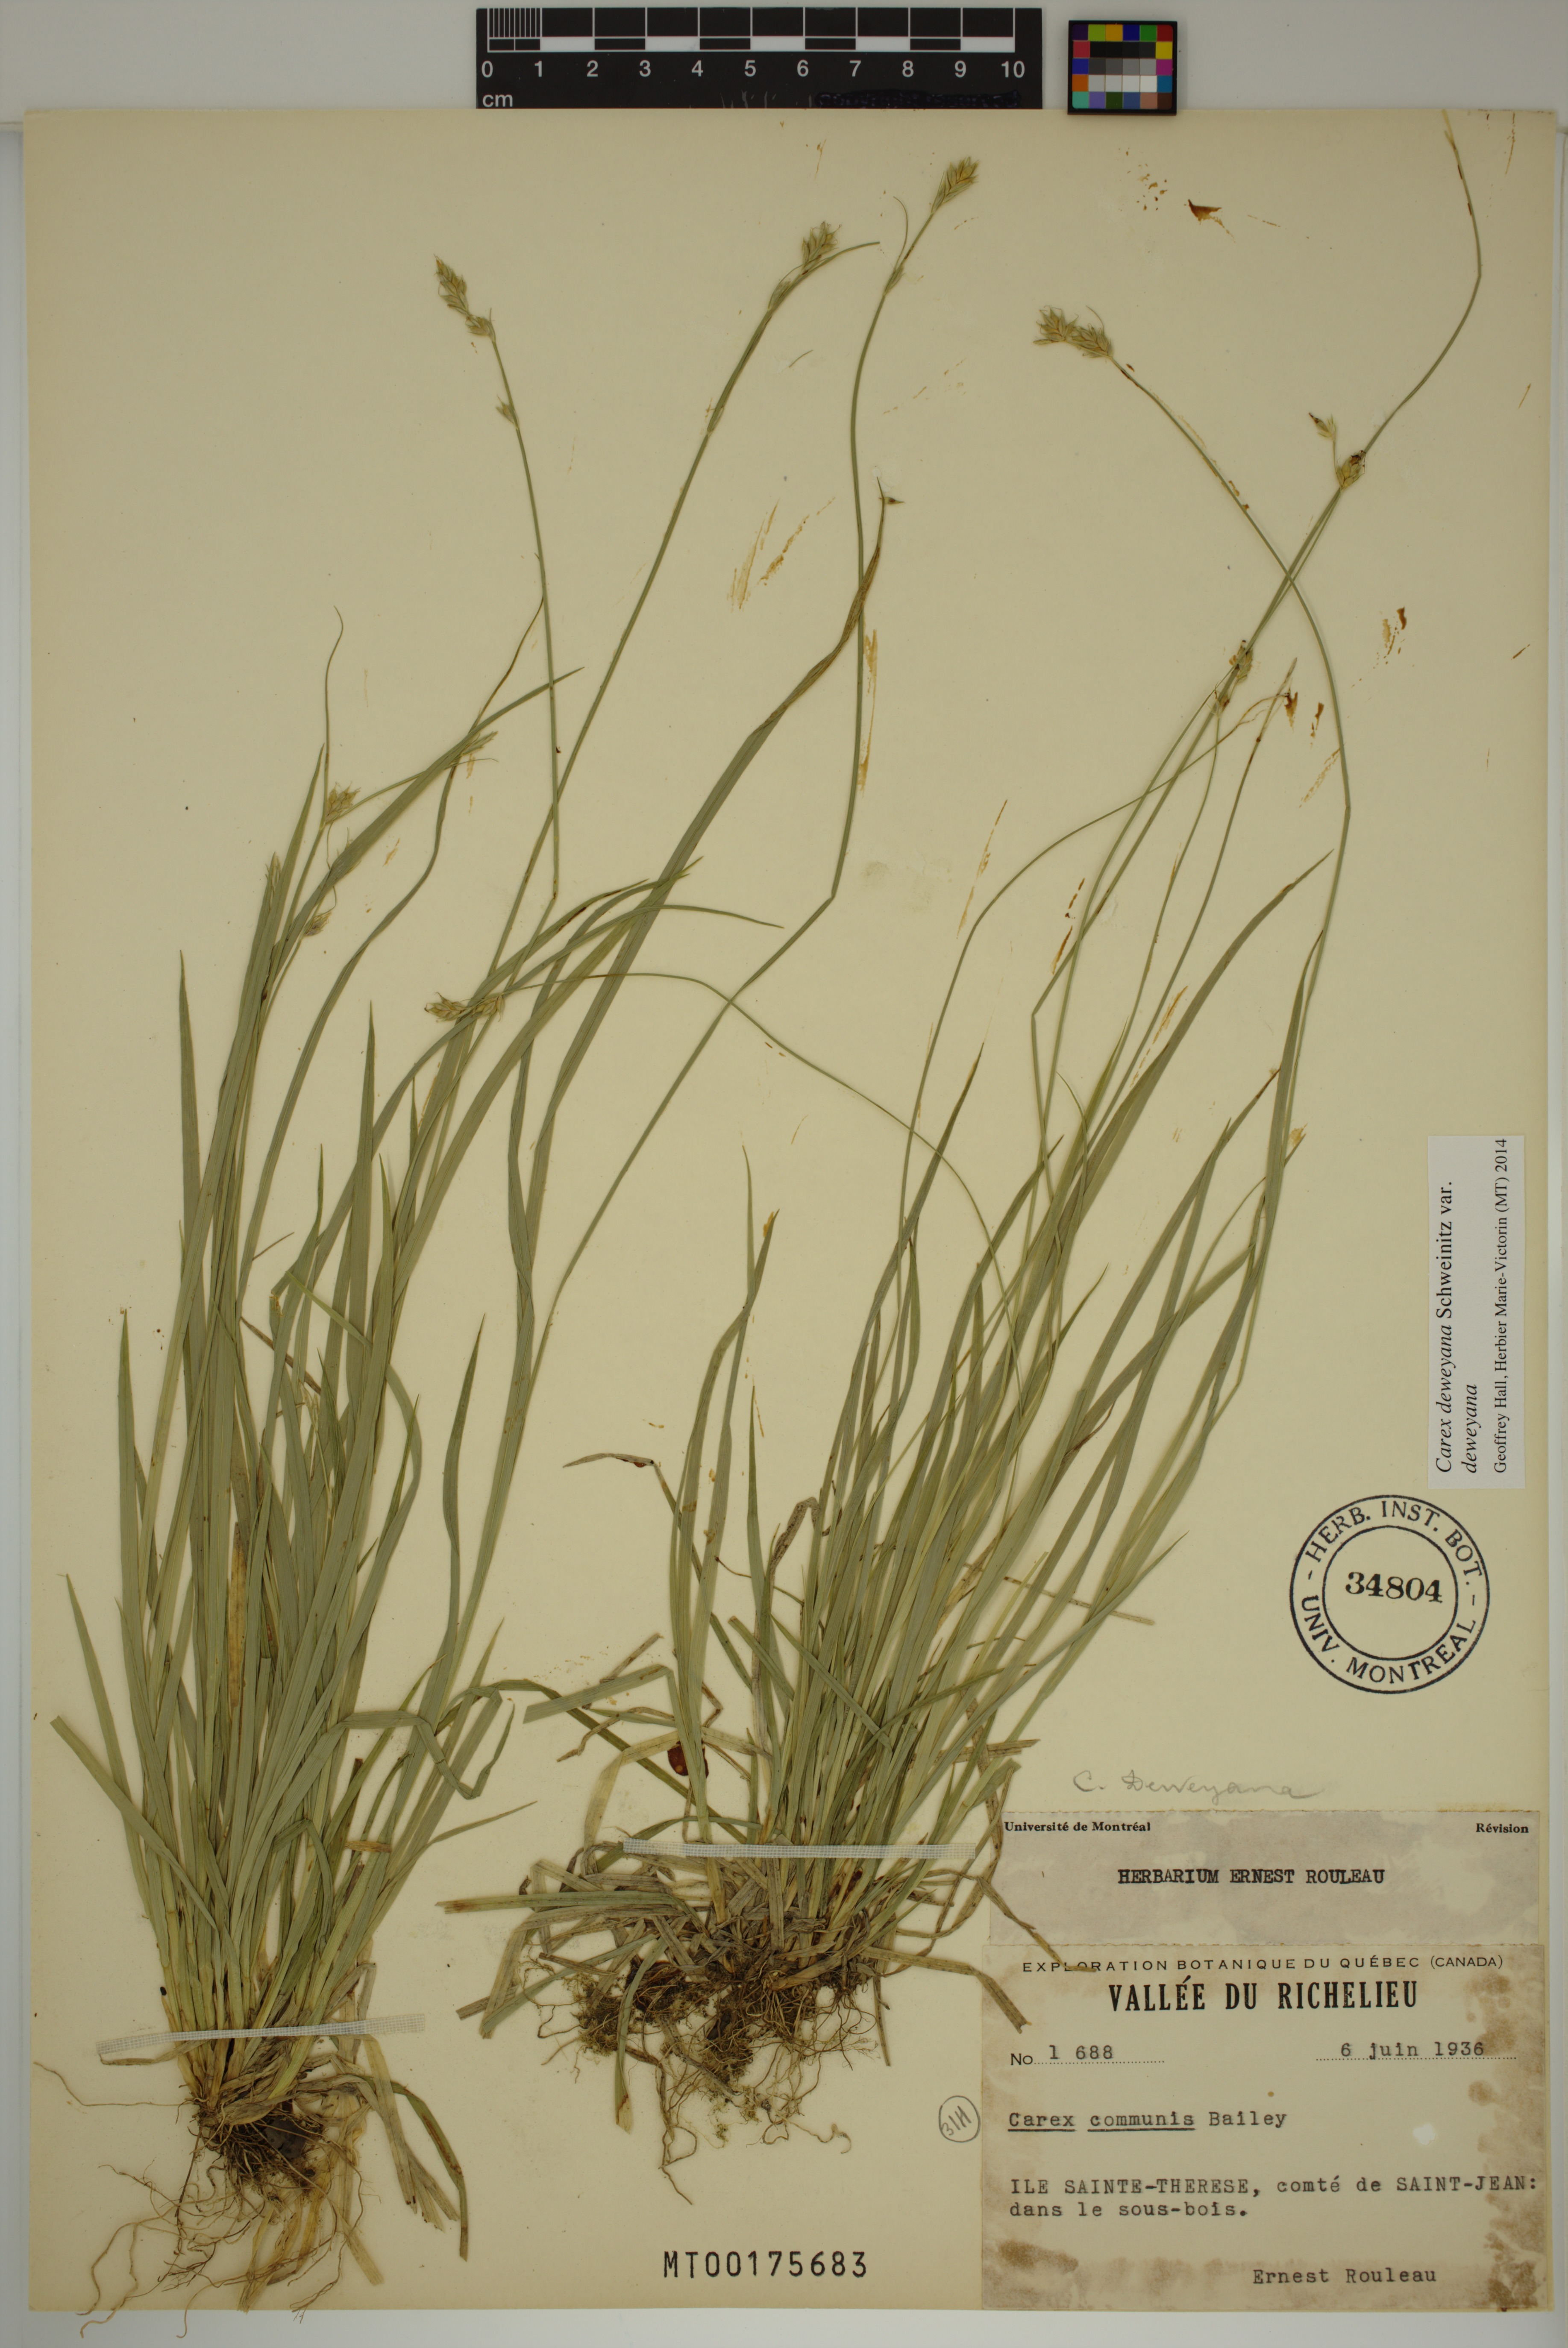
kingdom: Plantae
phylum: Tracheophyta
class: Liliopsida
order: Poales
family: Cyperaceae
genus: Carex
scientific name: Carex deweyana
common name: Dewey's sedge
